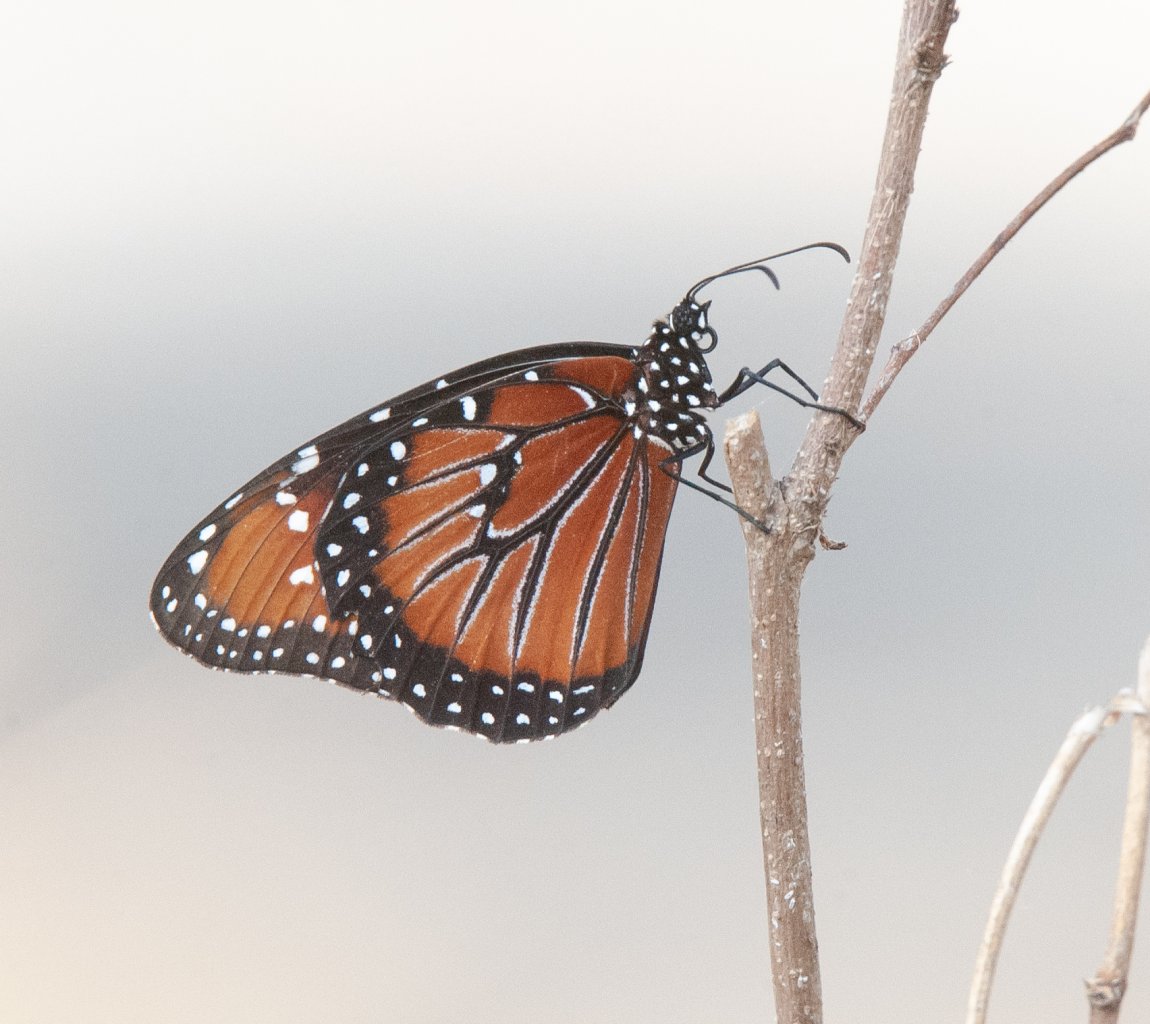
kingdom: Animalia
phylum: Arthropoda
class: Insecta
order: Lepidoptera
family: Nymphalidae
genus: Danaus
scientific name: Danaus gilippus
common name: Queen
